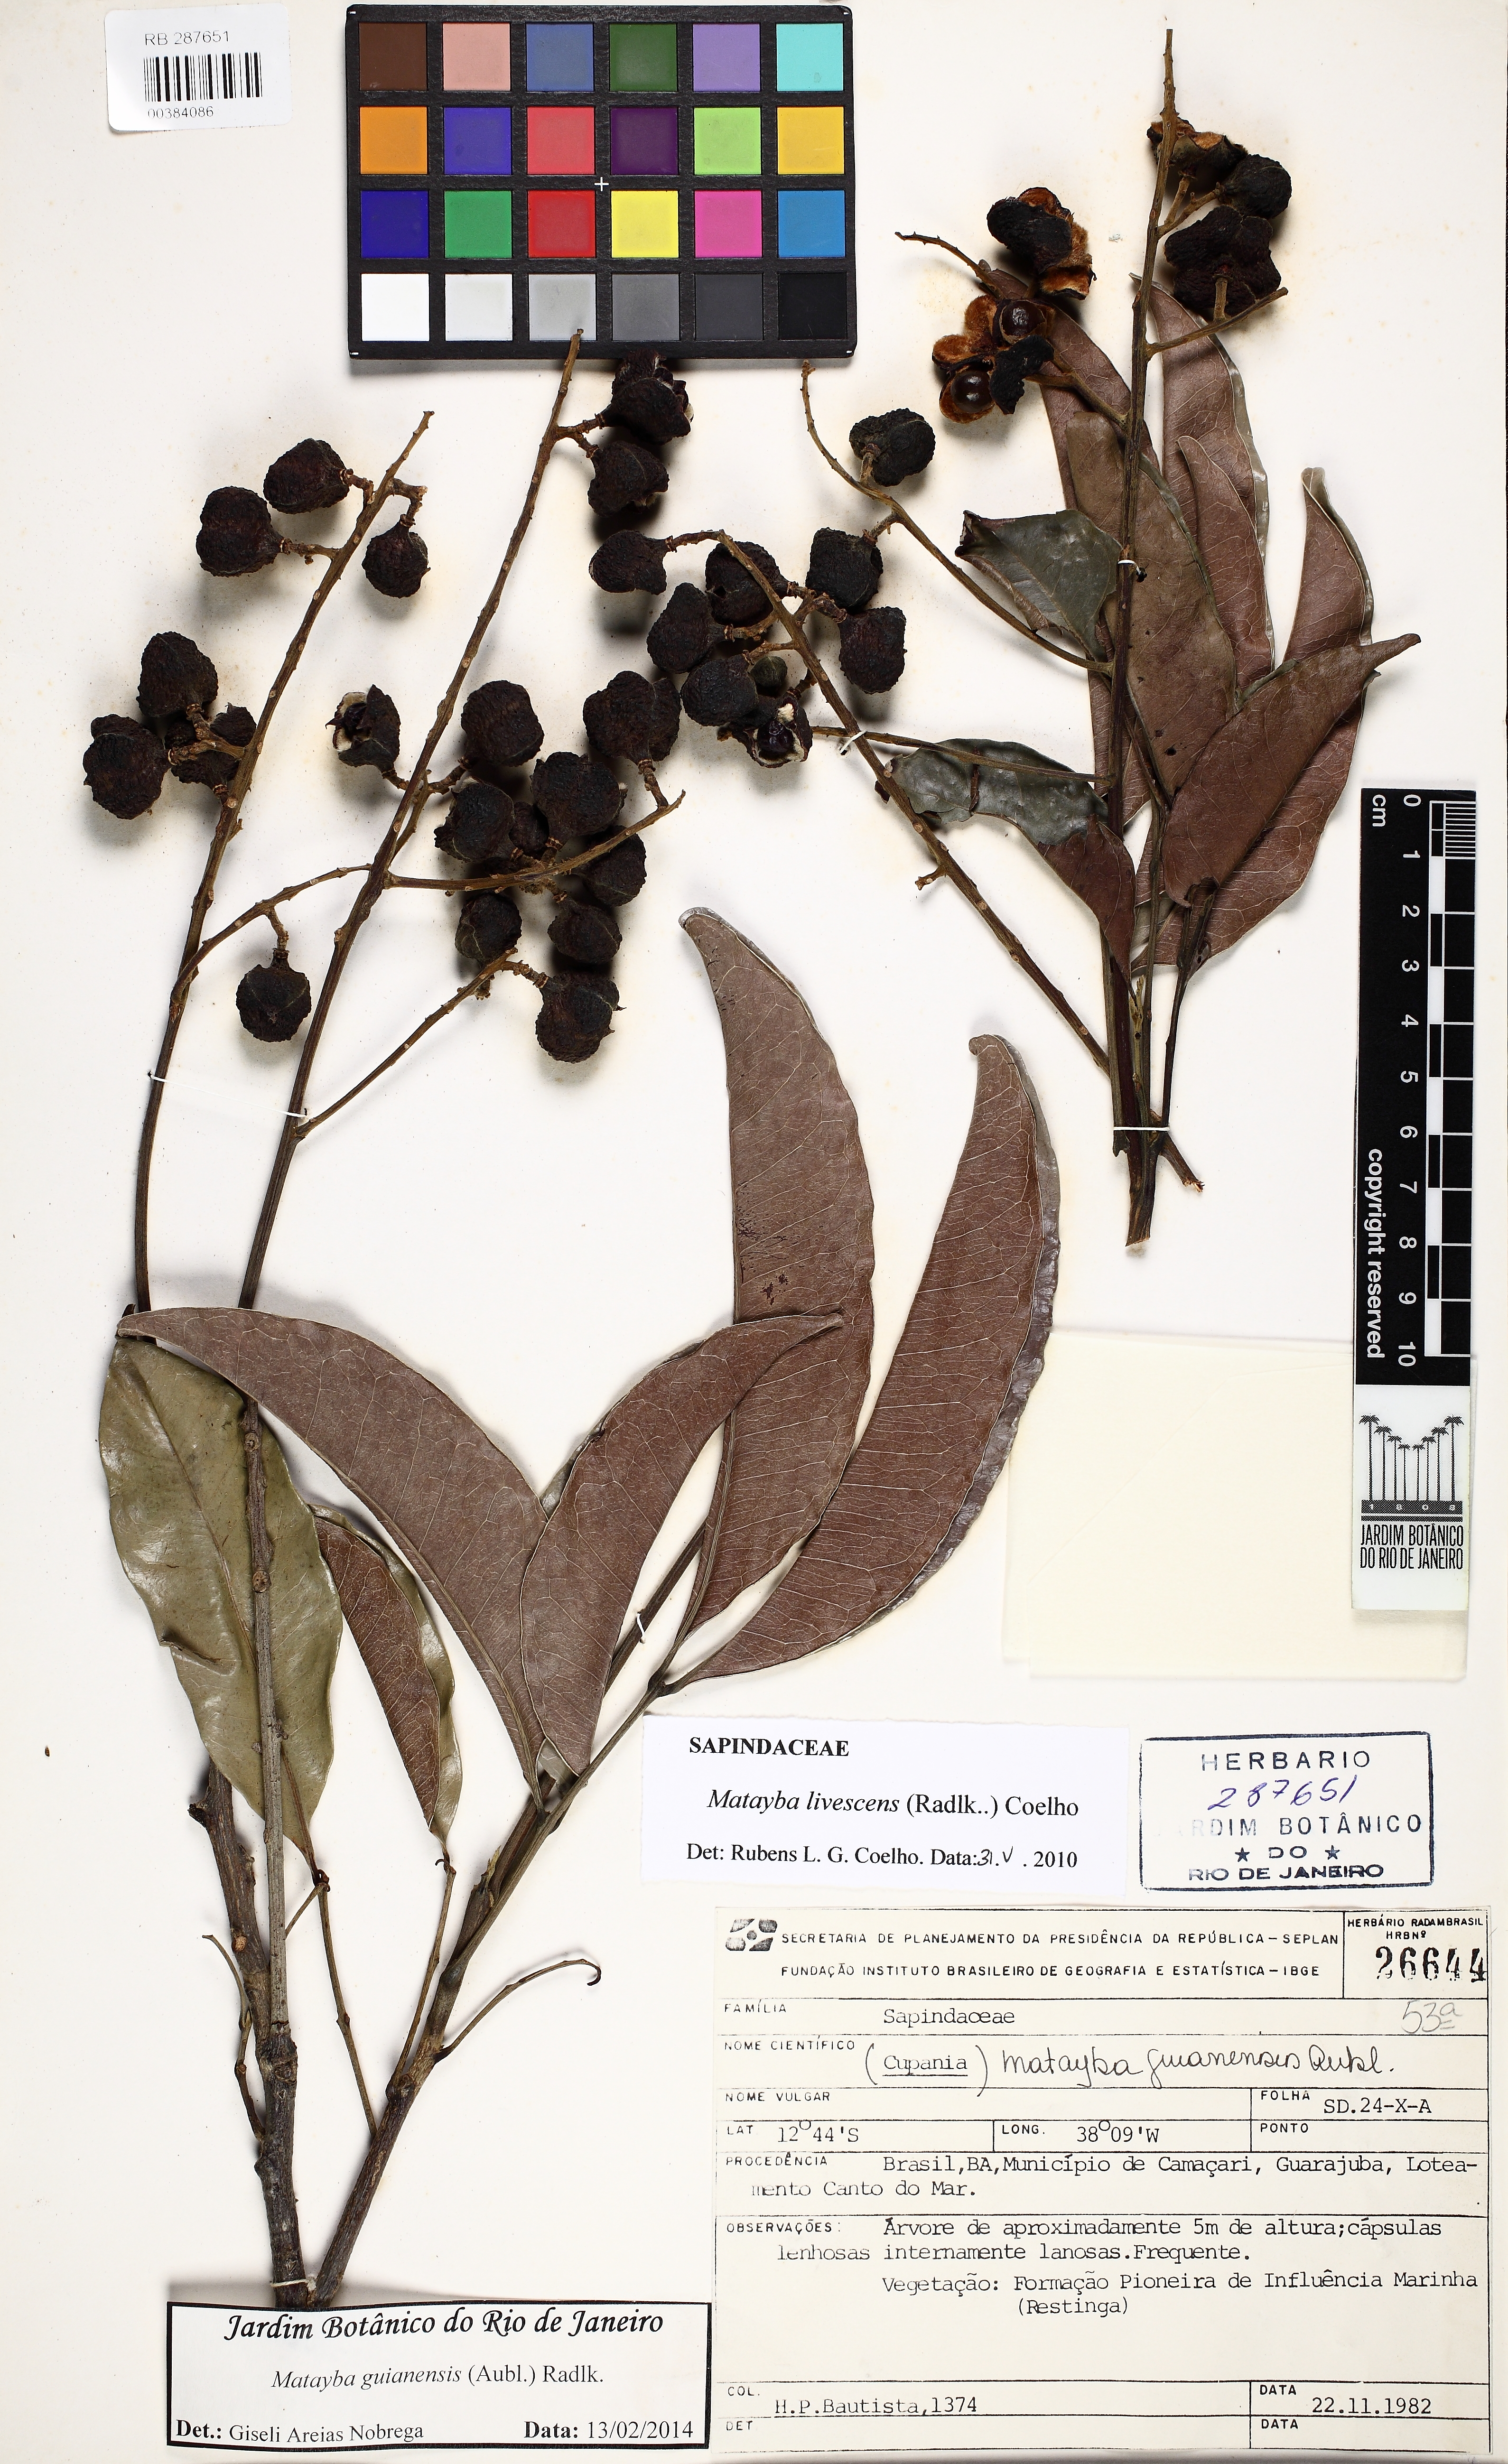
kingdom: Plantae
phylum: Tracheophyta
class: Magnoliopsida
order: Sapindales
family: Sapindaceae
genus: Matayba
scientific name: Matayba guianensis
